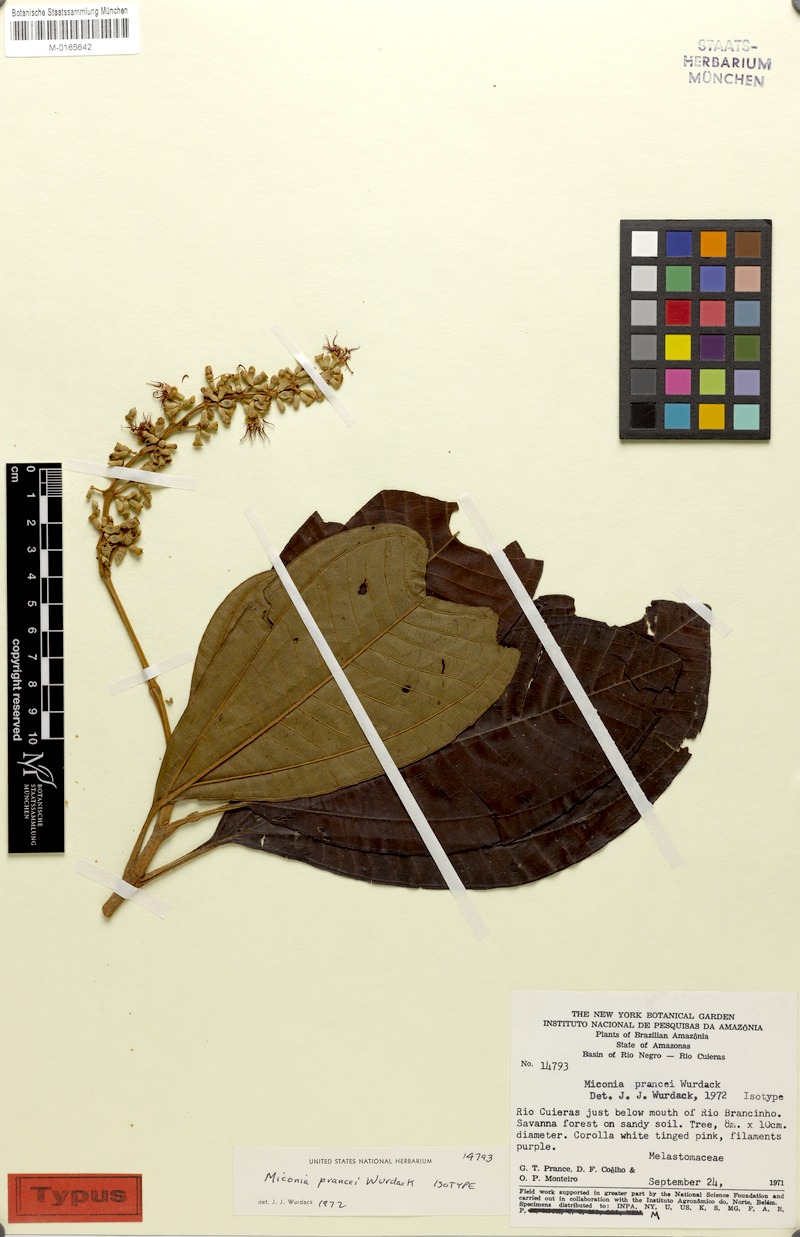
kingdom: Plantae
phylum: Tracheophyta
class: Magnoliopsida
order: Myrtales
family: Melastomataceae
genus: Miconia
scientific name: Miconia prancei
